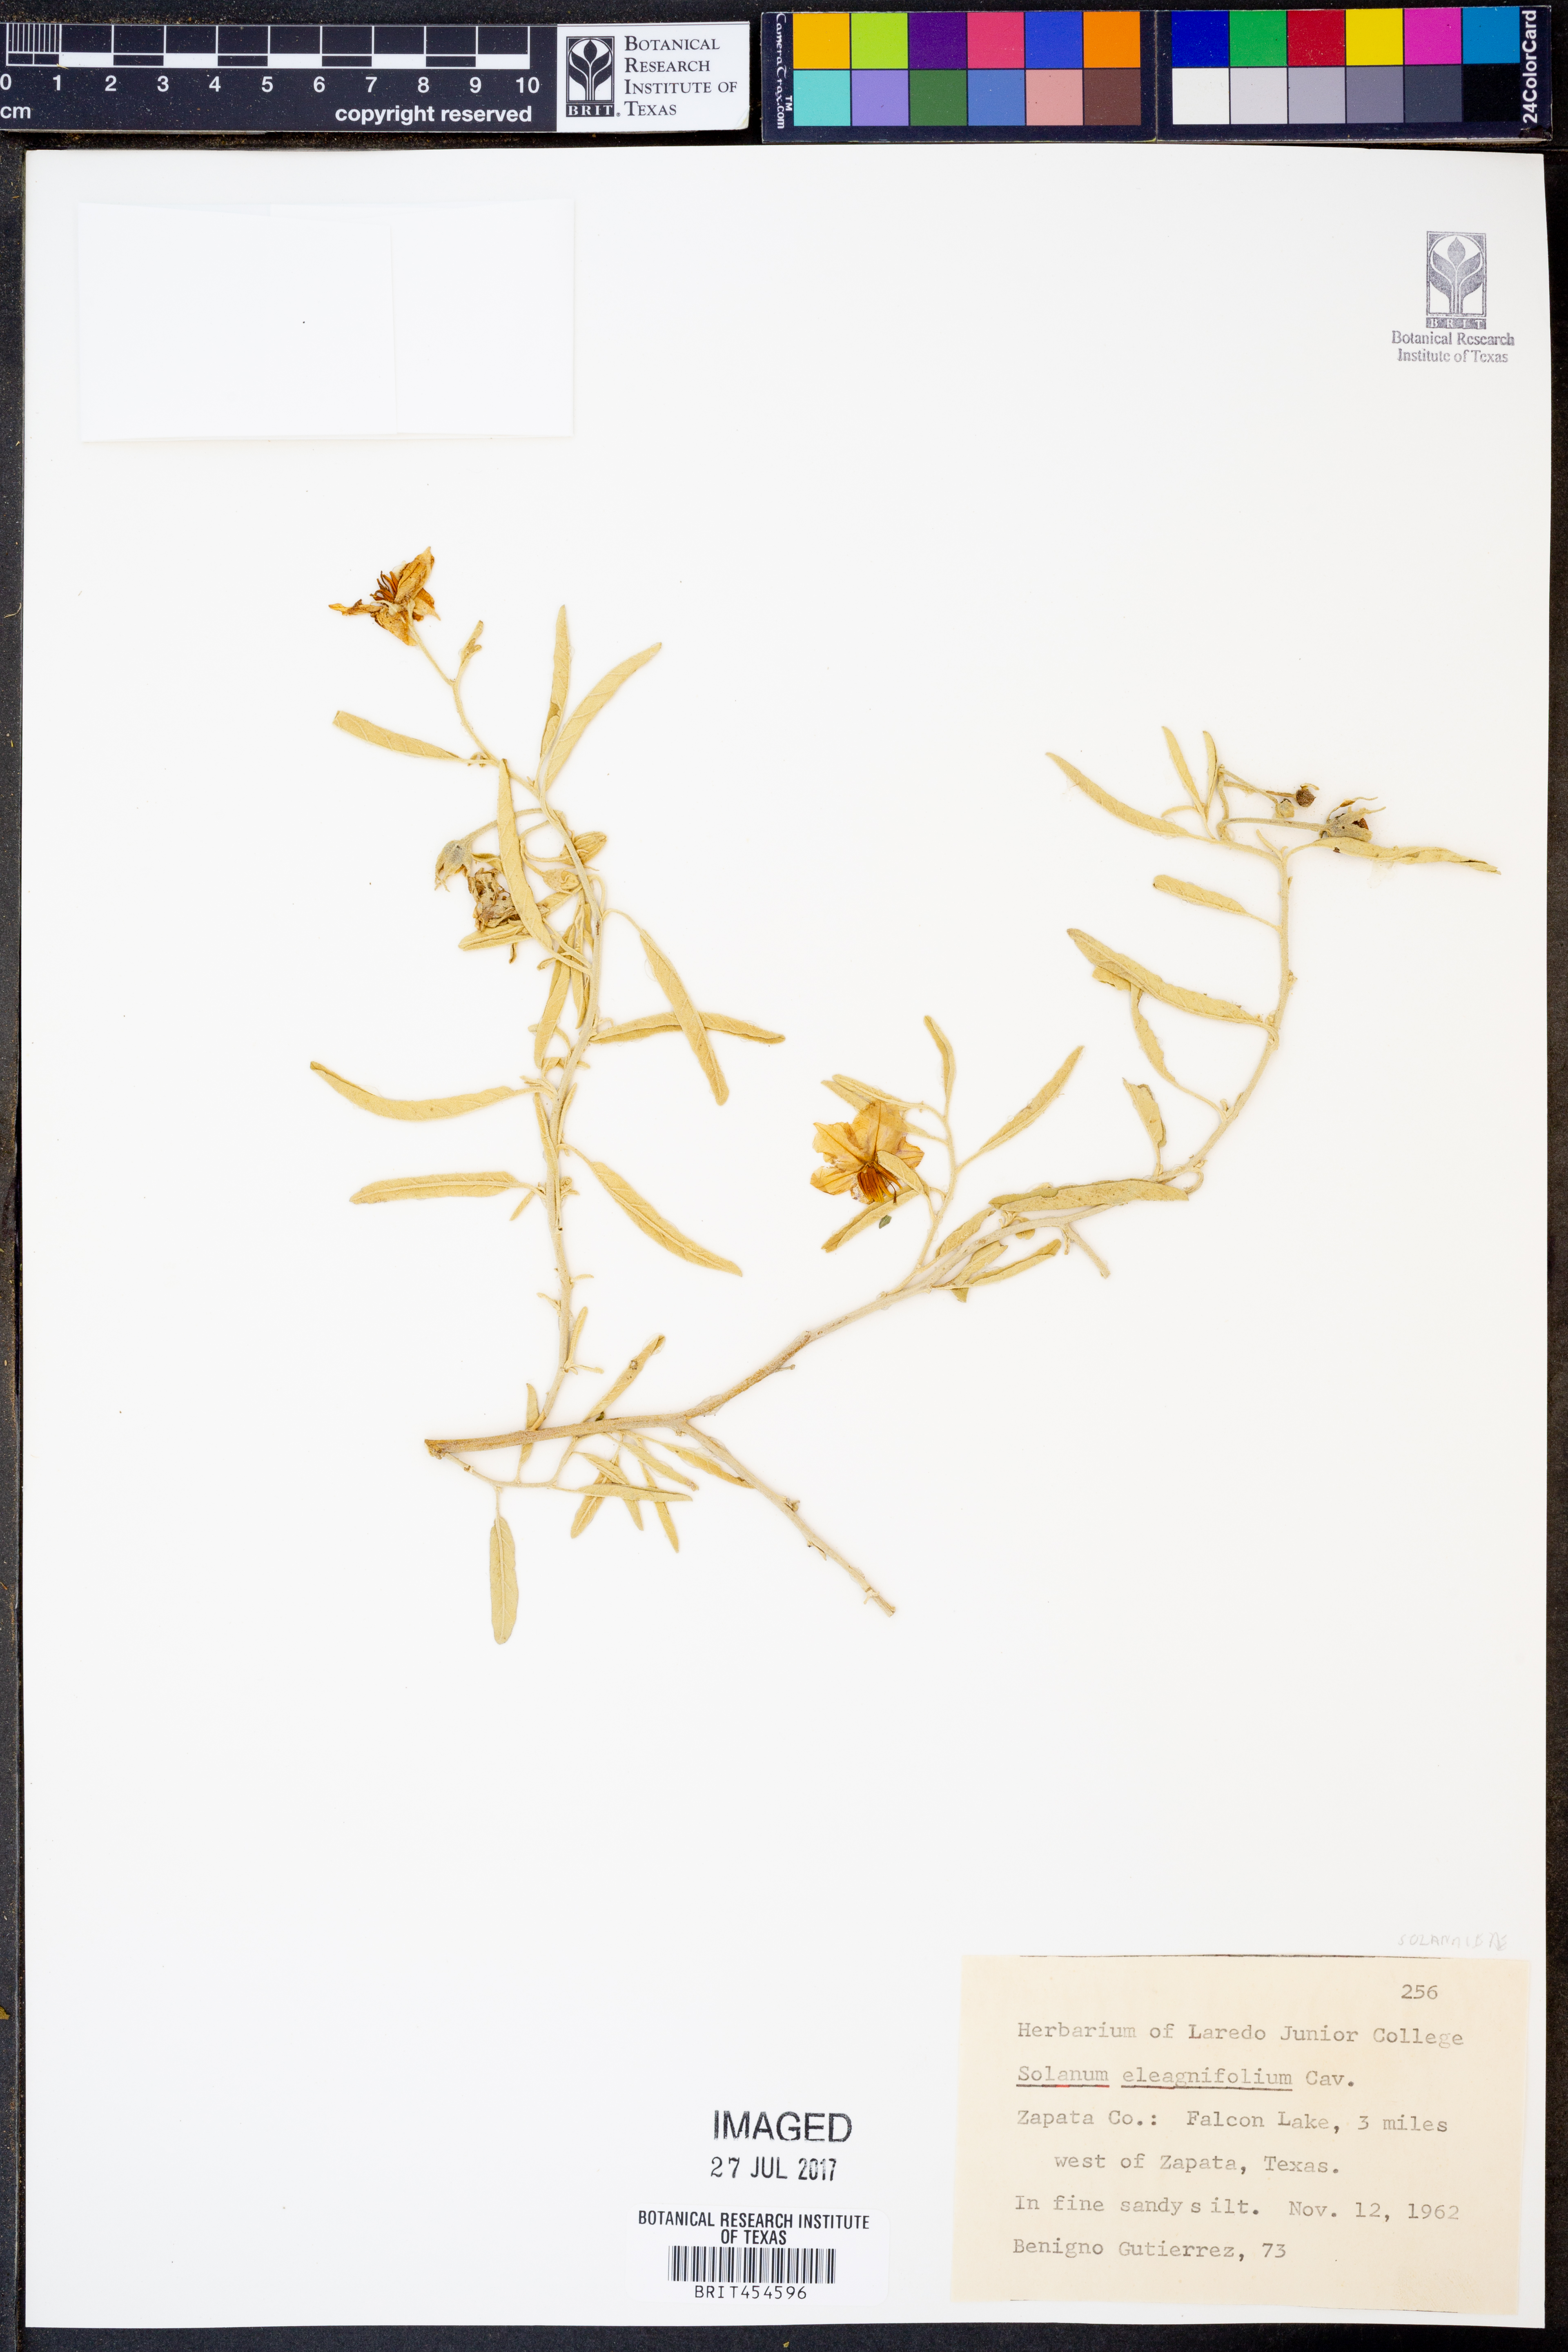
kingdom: Plantae
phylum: Tracheophyta
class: Magnoliopsida
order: Solanales
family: Solanaceae
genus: Solanum
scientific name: Solanum elaeagnifolium
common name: Silverleaf nightshade
